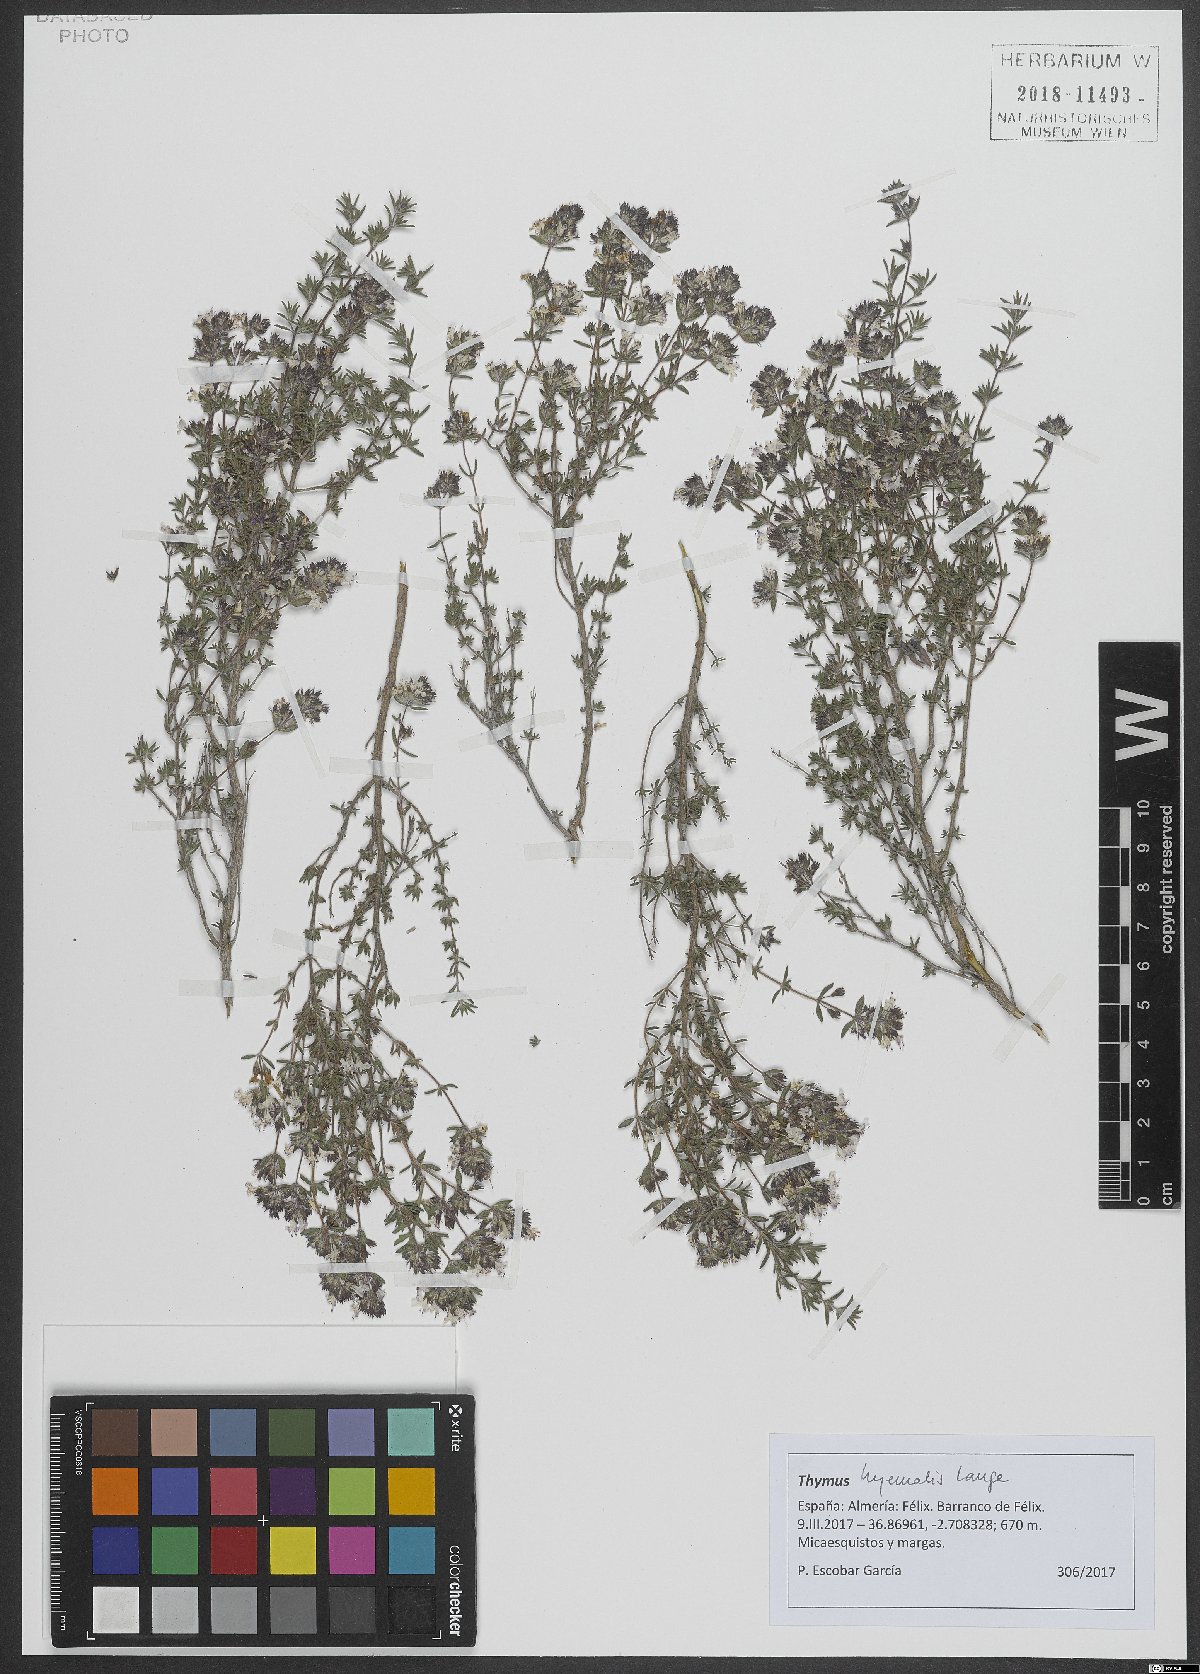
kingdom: Plantae
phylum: Tracheophyta
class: Magnoliopsida
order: Lamiales
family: Lamiaceae
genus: Thymus
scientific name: Thymus hyemalis
